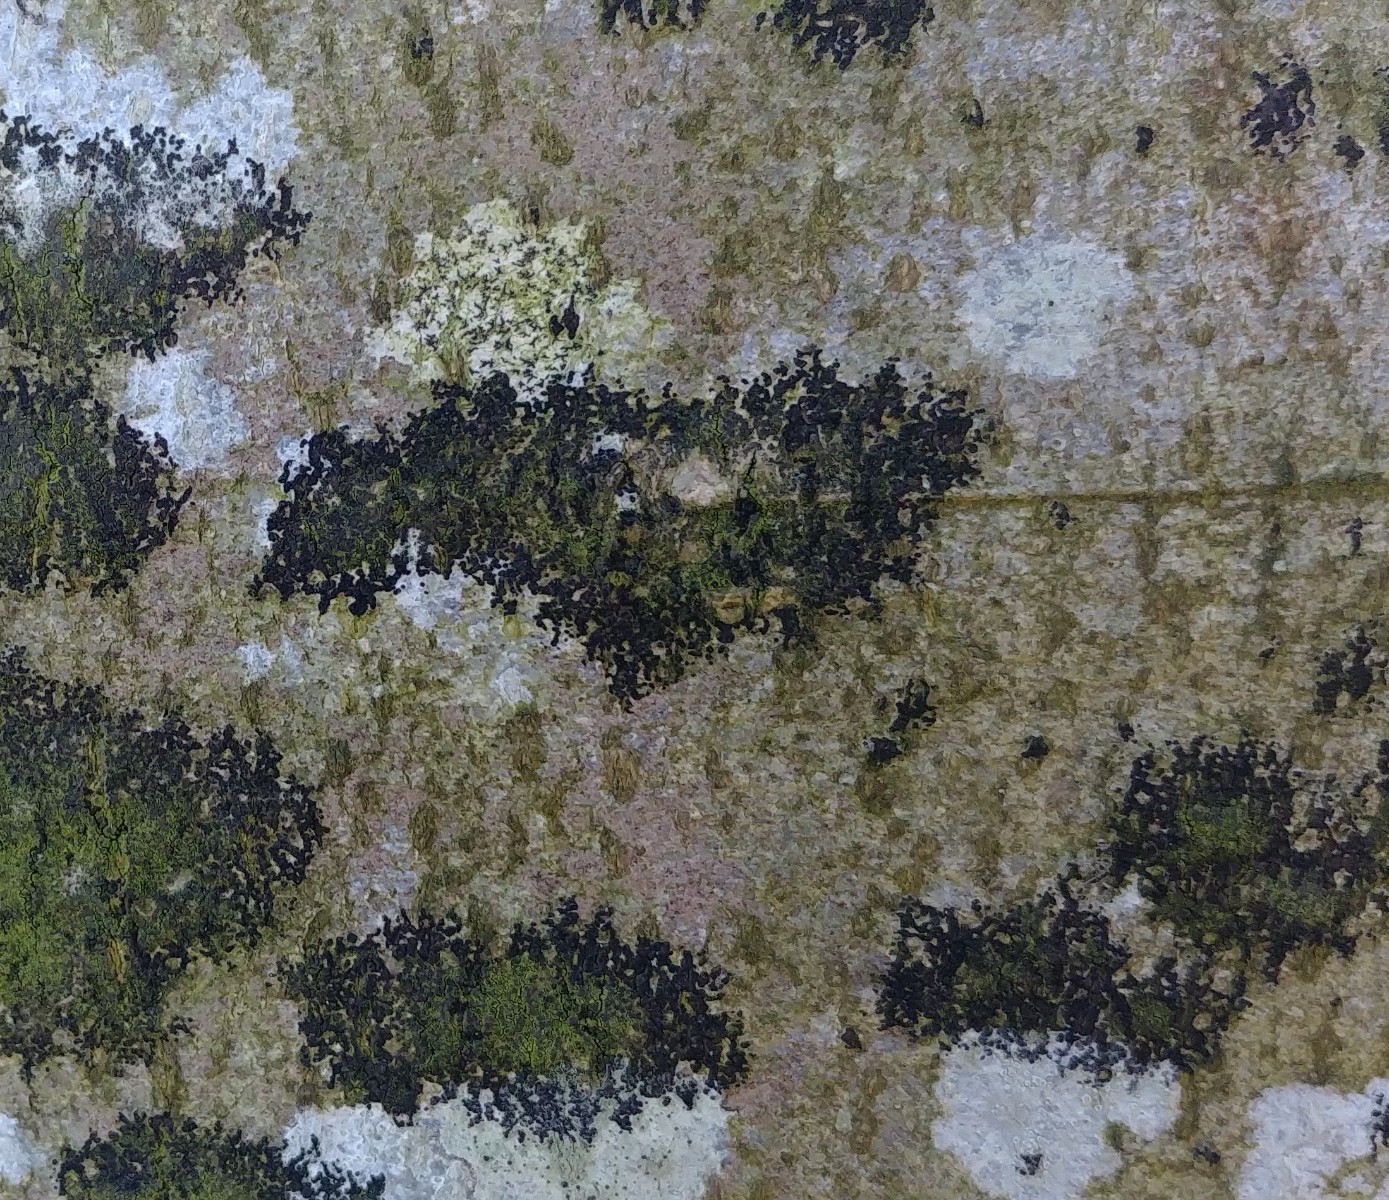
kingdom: Fungi
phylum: Ascomycota
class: Leotiomycetes
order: Rhytismatales
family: Ascodichaenaceae
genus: Ascodichaena
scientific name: Ascodichaena rugosa
